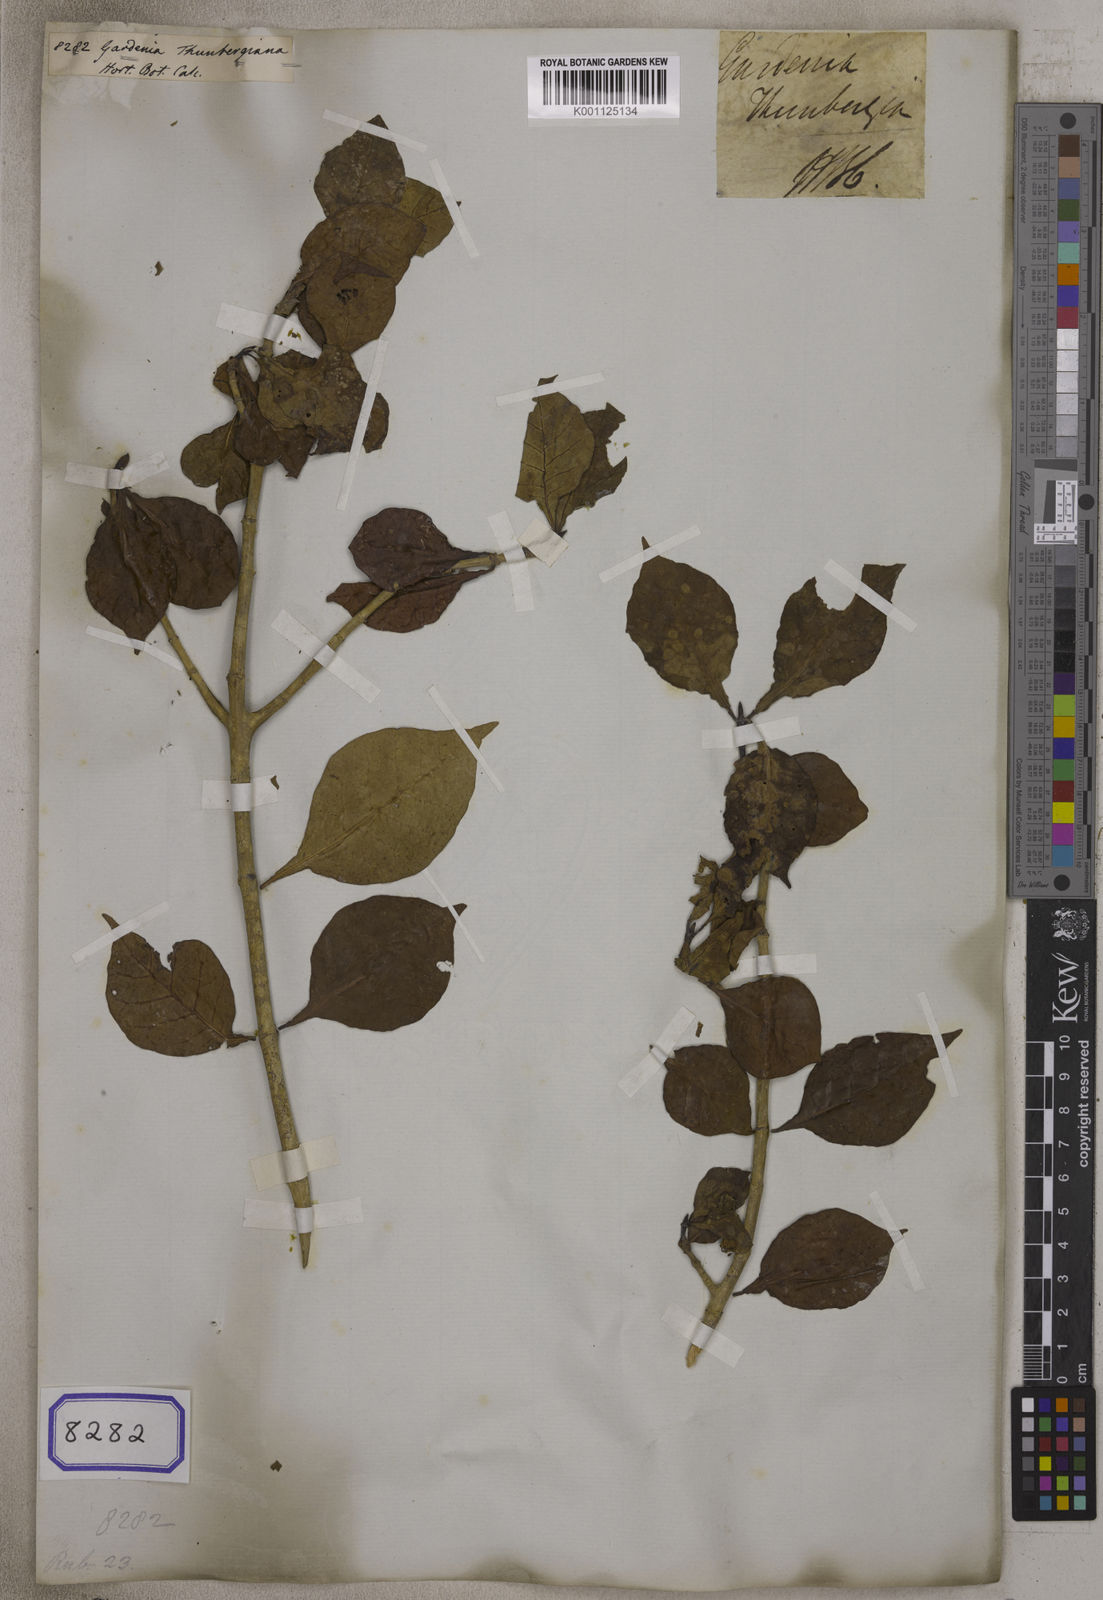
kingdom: Plantae
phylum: Tracheophyta
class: Magnoliopsida
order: Gentianales
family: Rubiaceae
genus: Gardenia
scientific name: Gardenia
